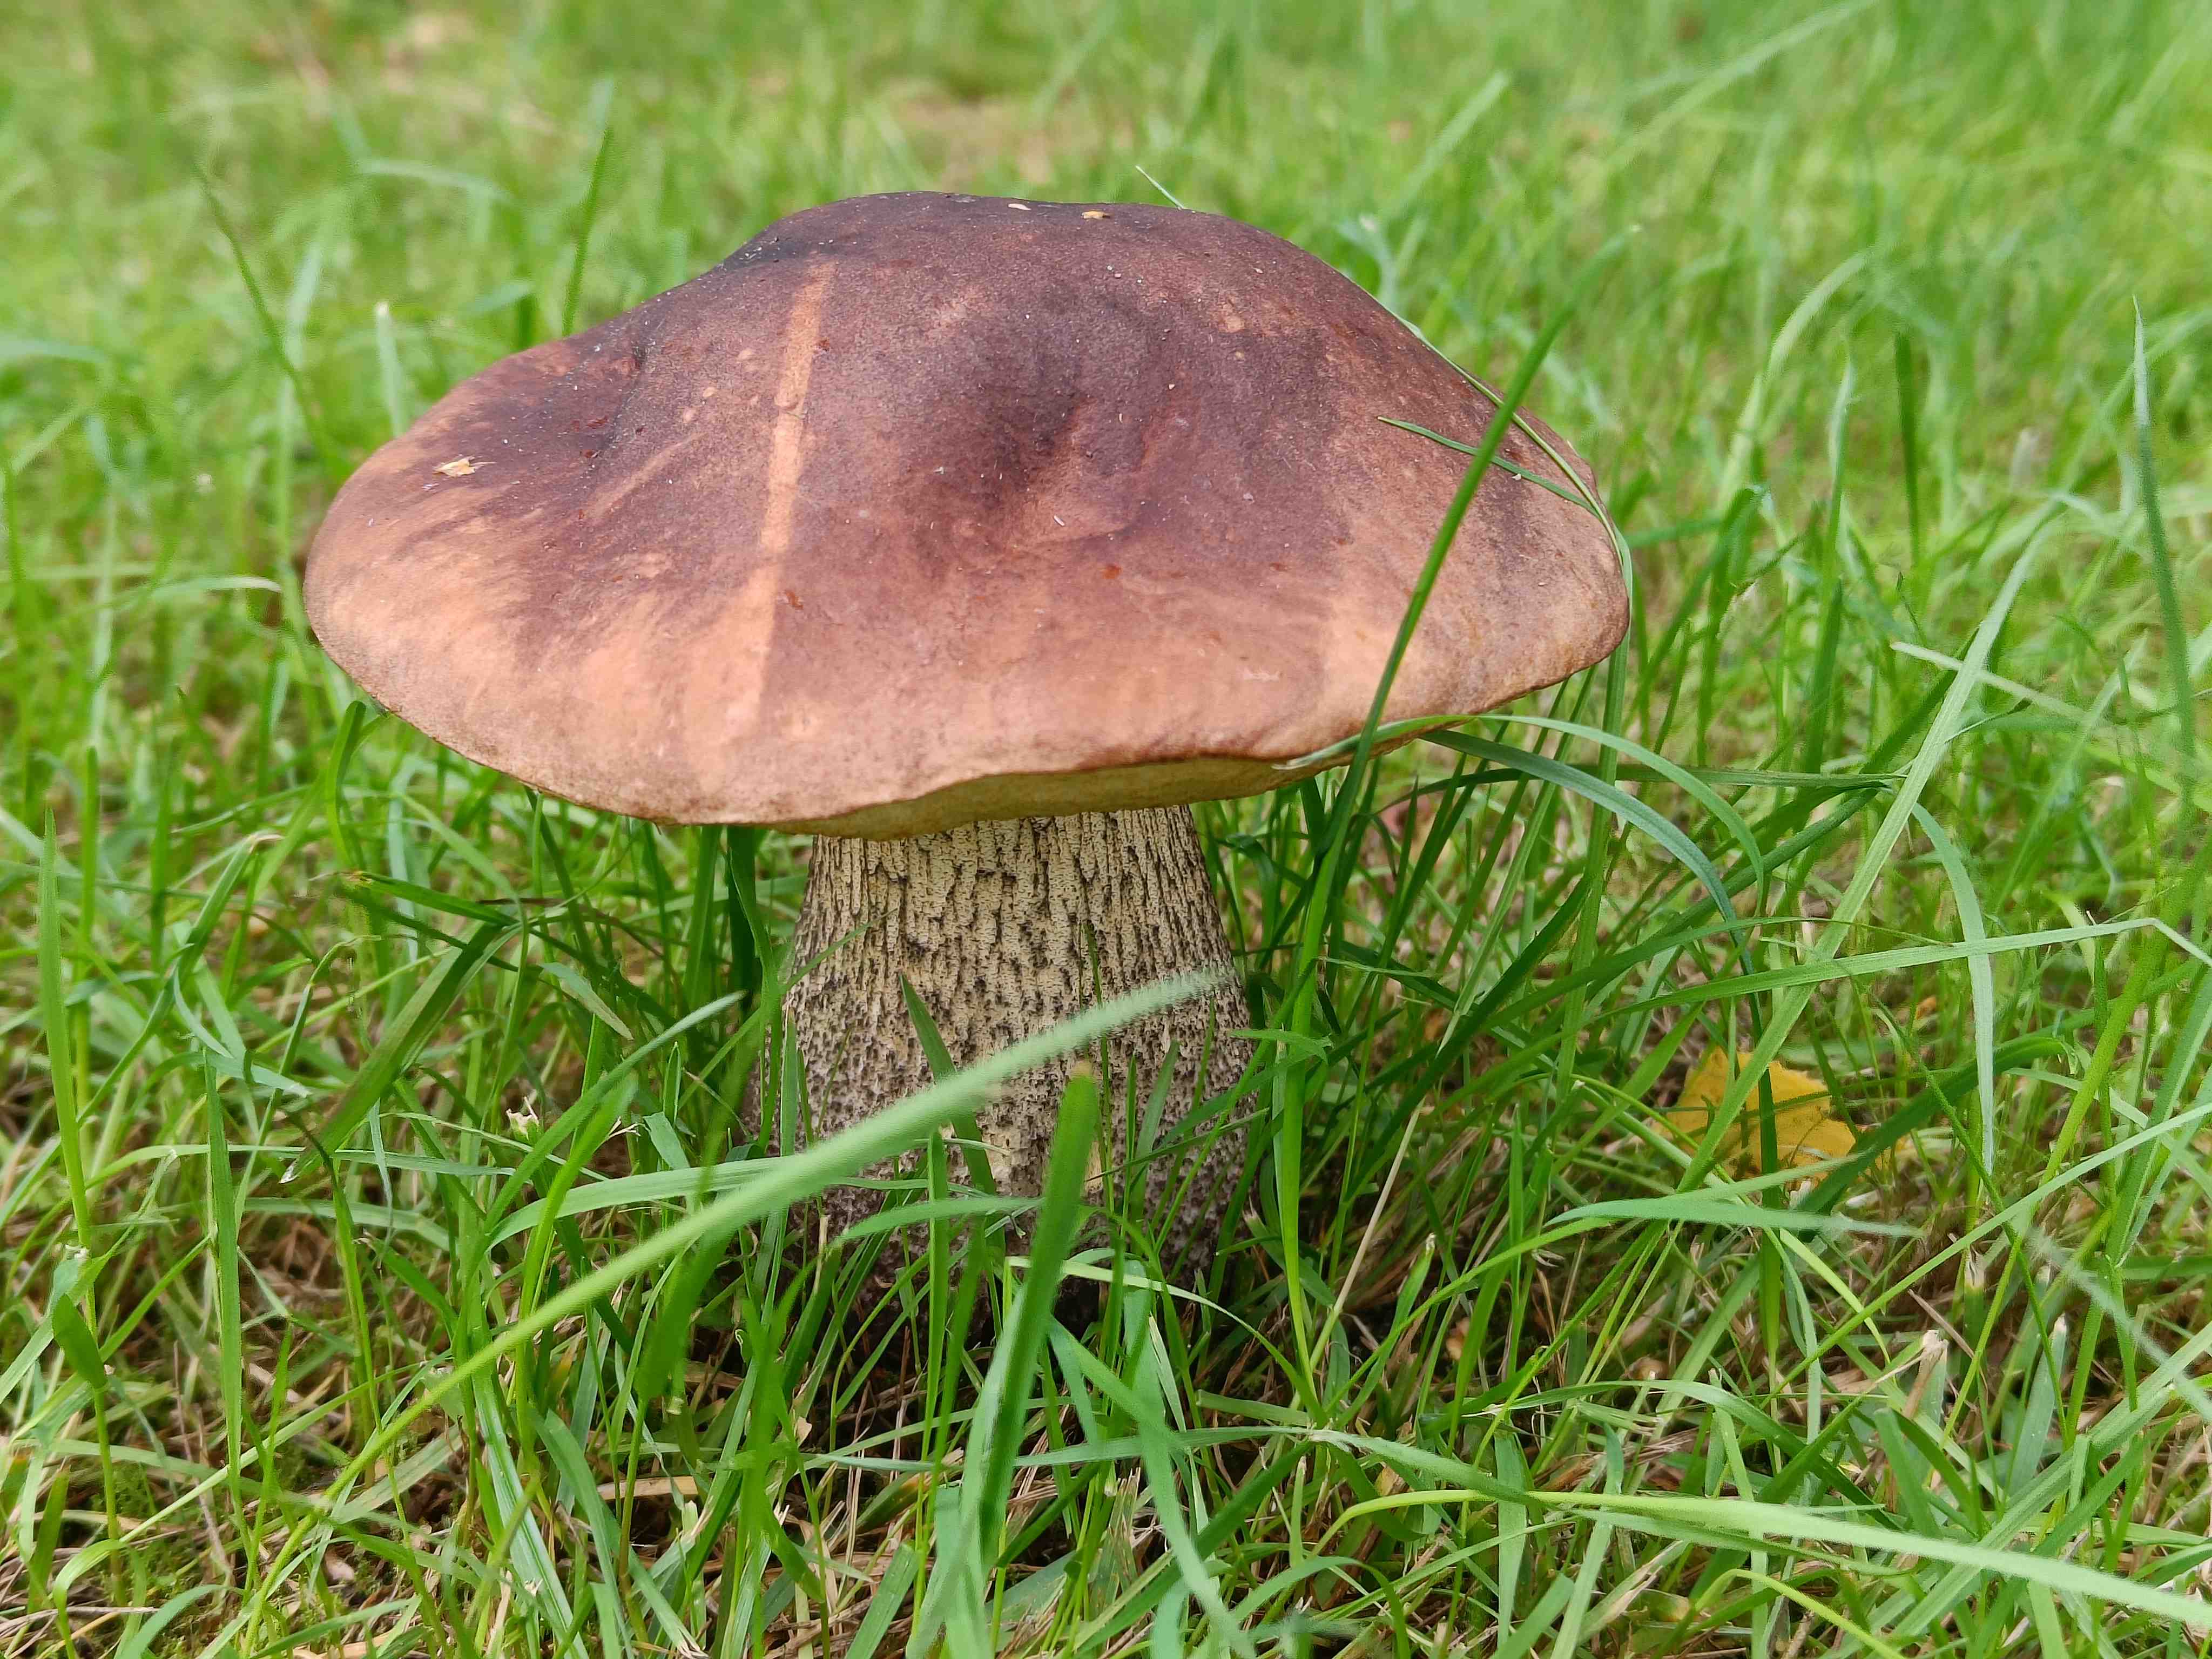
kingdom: Fungi
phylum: Basidiomycota
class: Agaricomycetes
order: Boletales
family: Boletaceae
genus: Leccinum
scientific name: Leccinum scabrum
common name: brun skælrørhat
